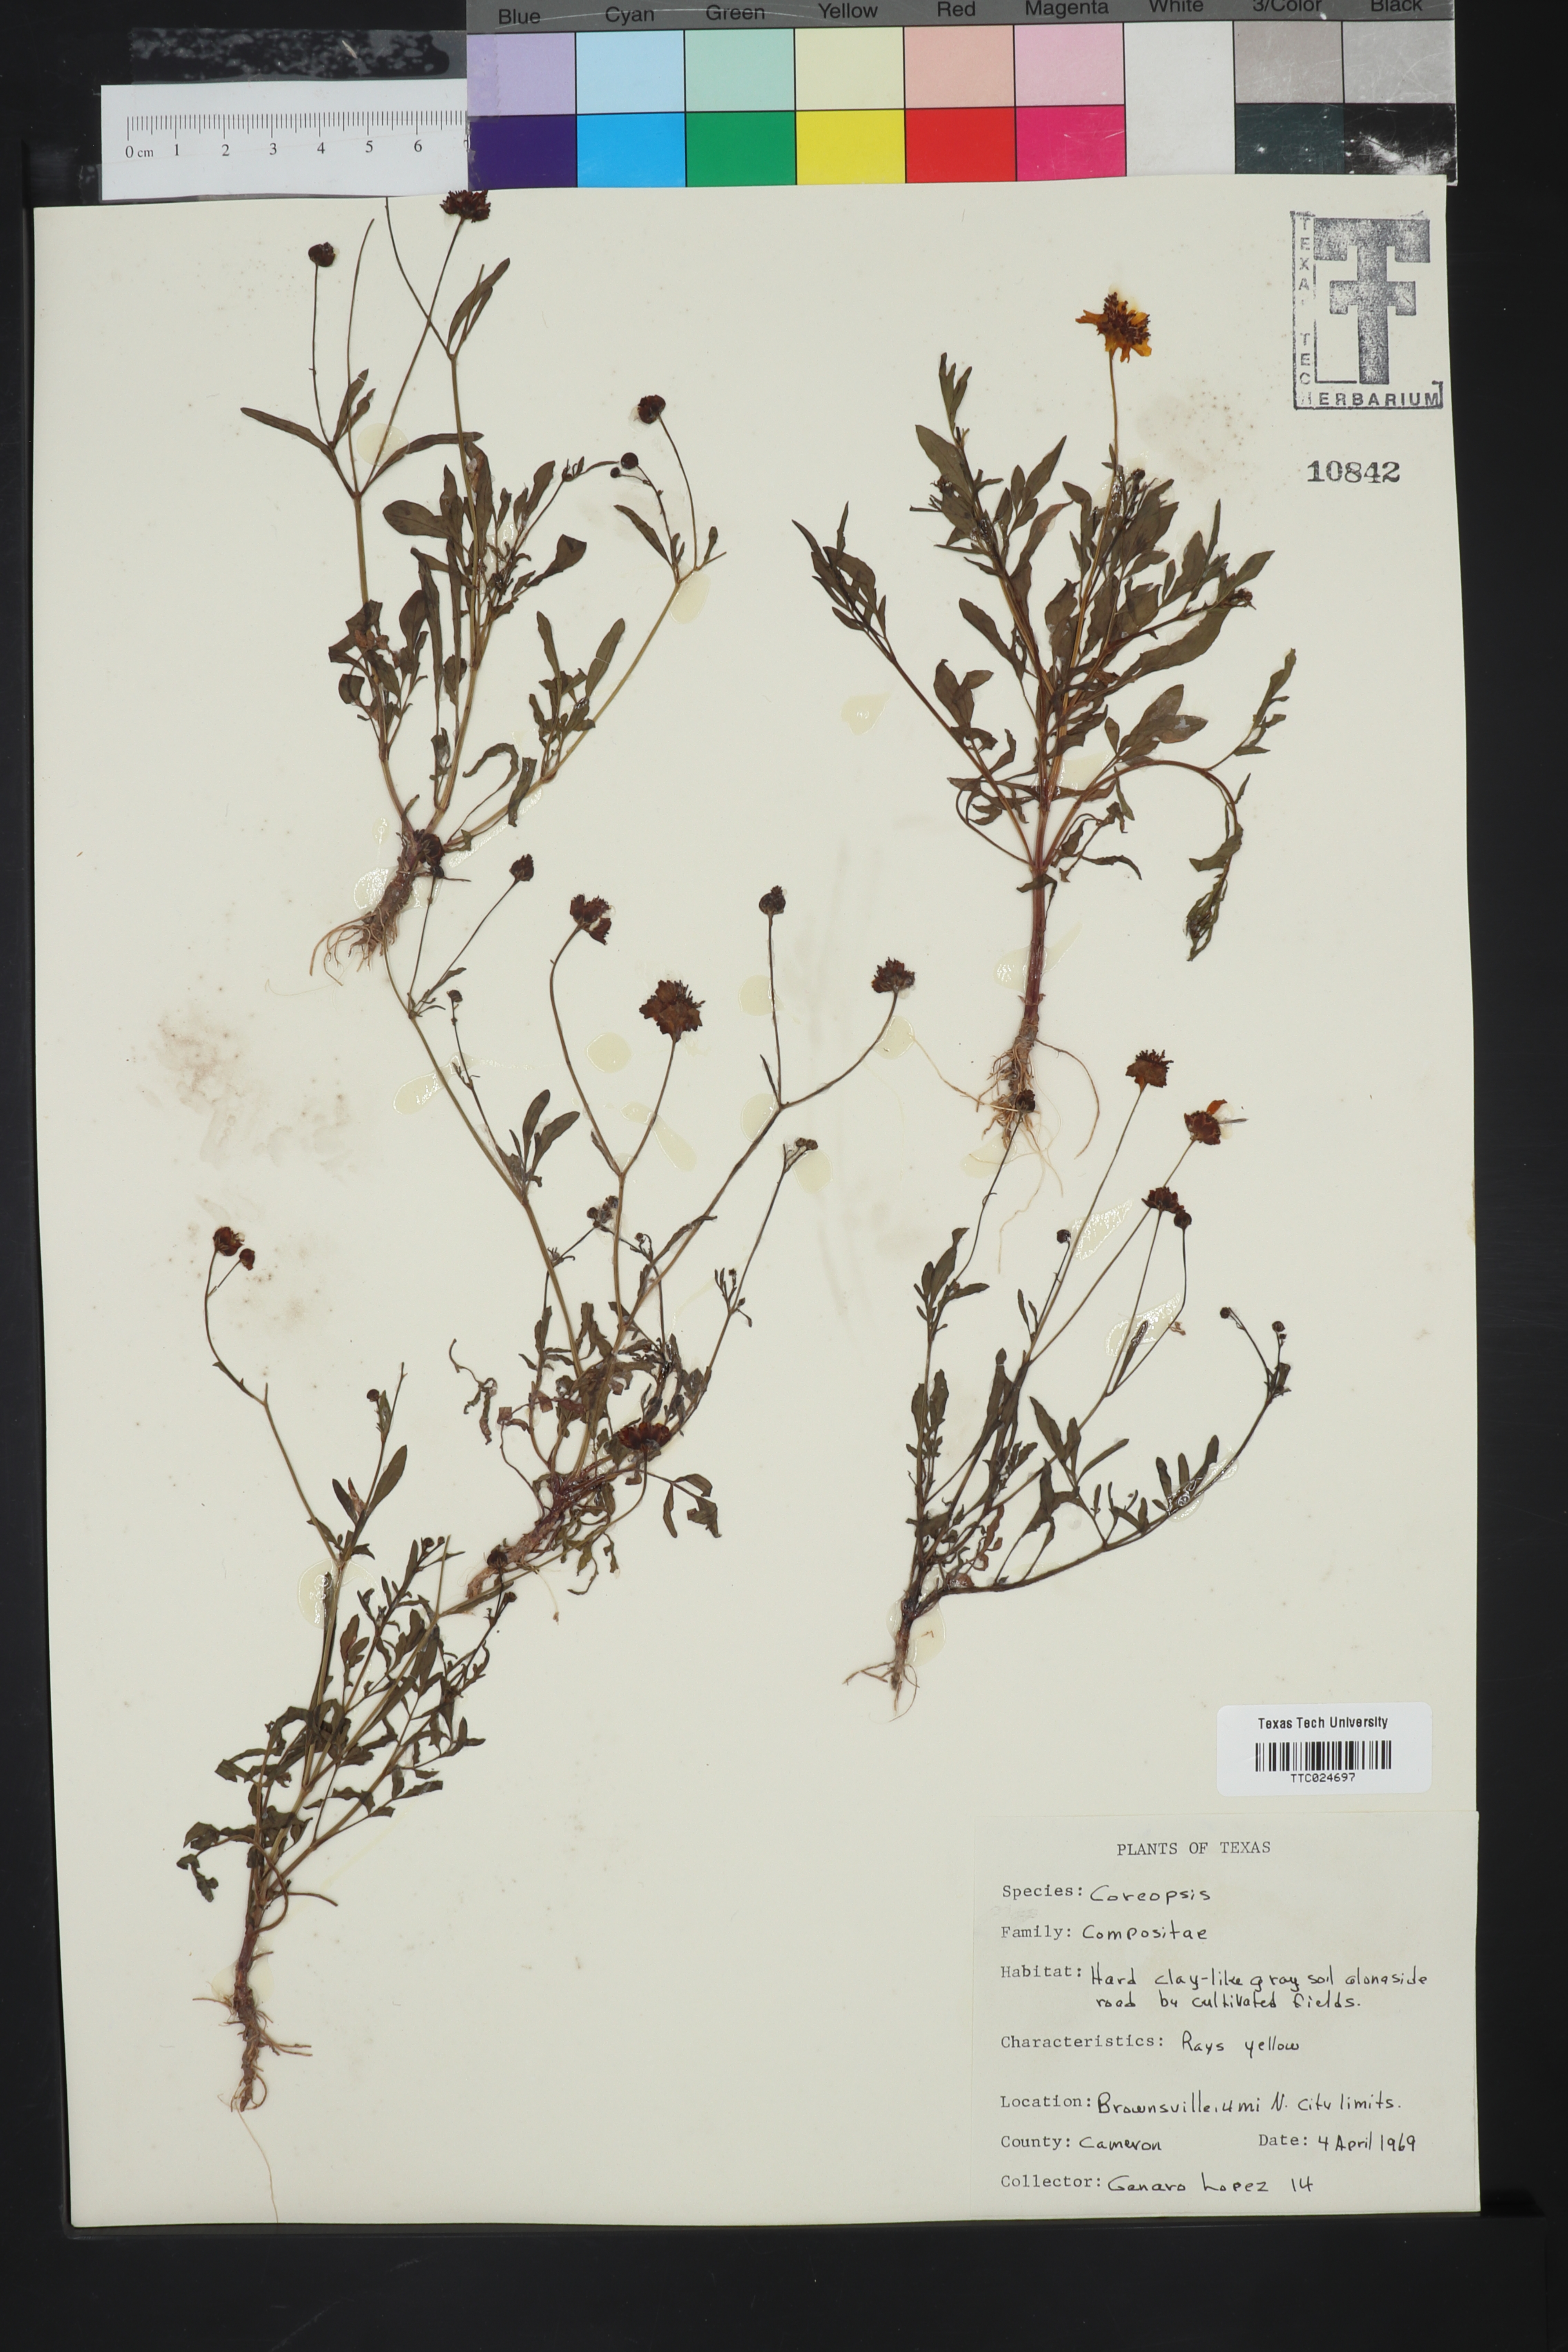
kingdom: Plantae
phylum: Tracheophyta
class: Magnoliopsida
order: Asterales
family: Asteraceae
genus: Coreopsis
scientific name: Coreopsis
